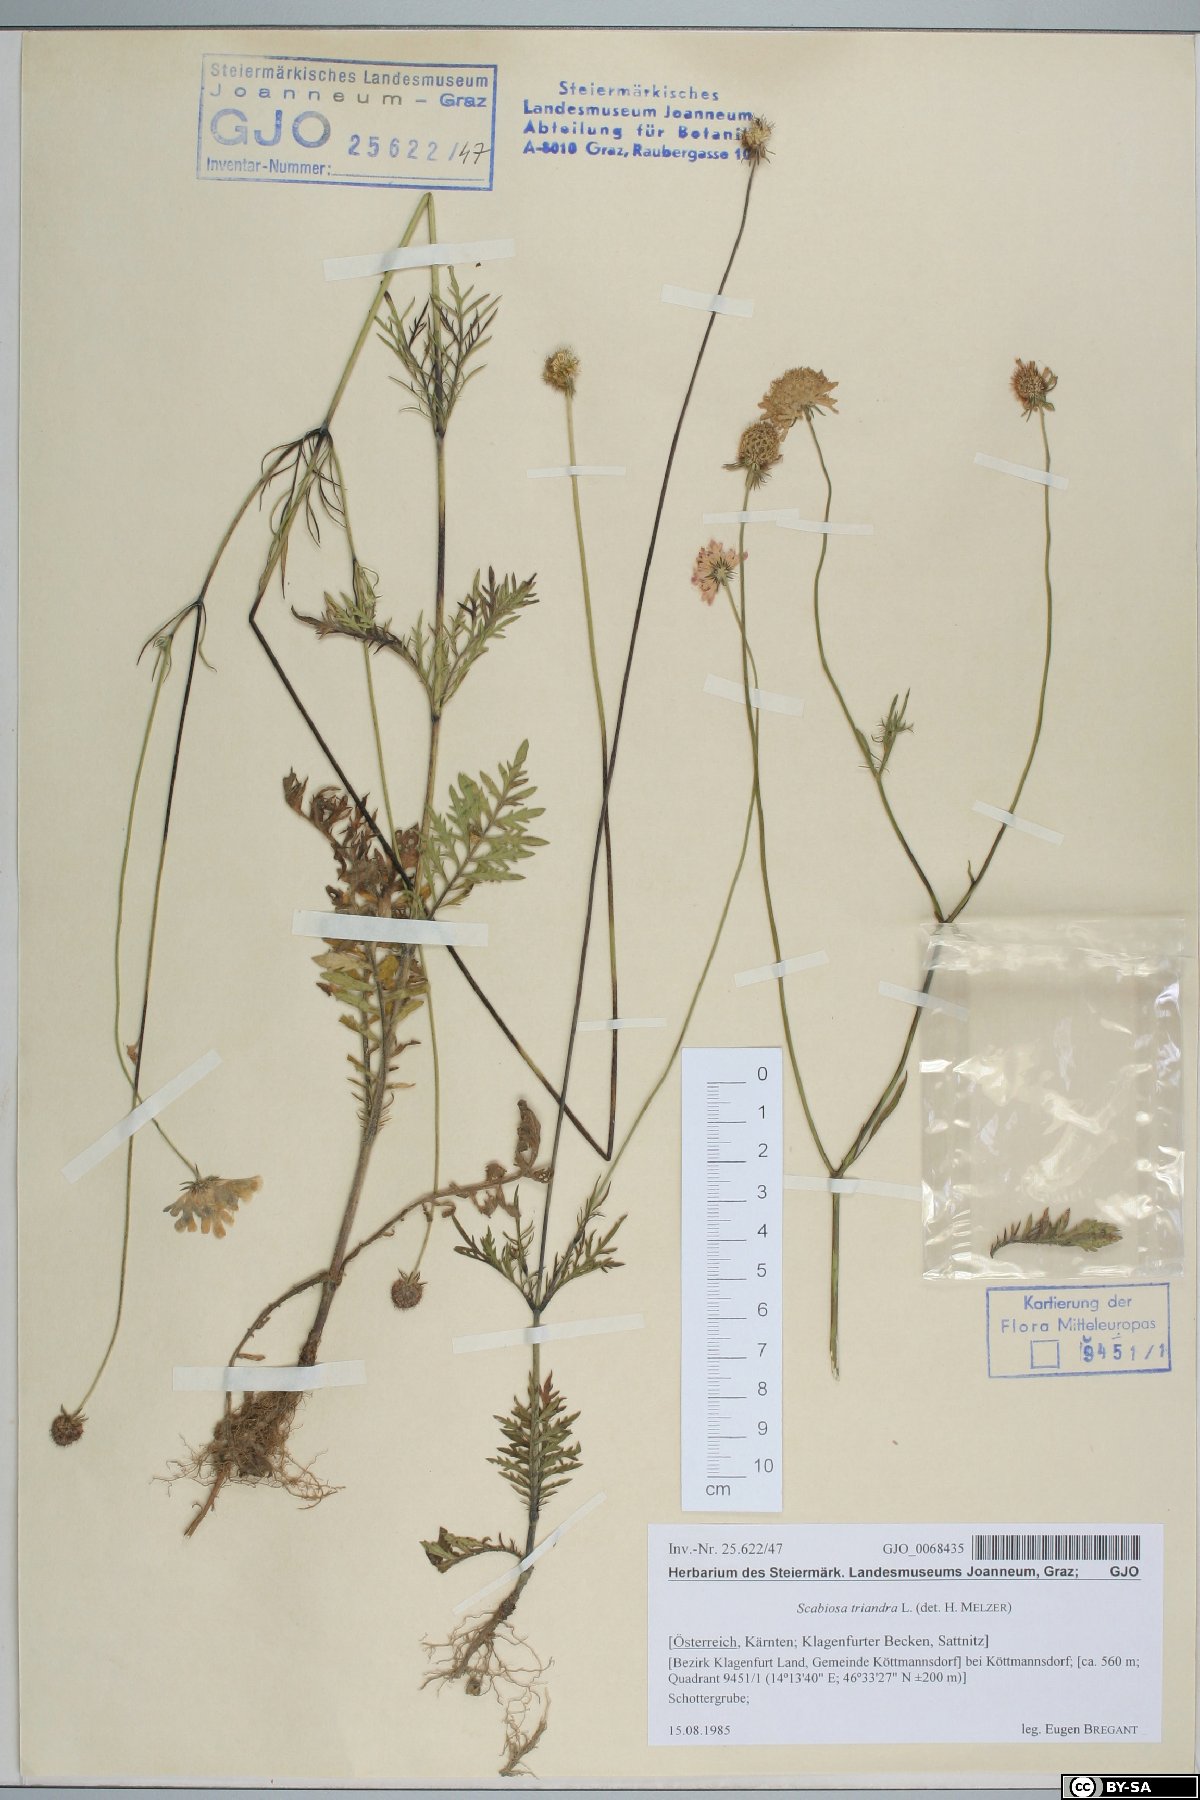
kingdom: Plantae
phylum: Tracheophyta
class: Magnoliopsida
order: Dipsacales
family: Caprifoliaceae
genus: Scabiosa
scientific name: Scabiosa triandra
